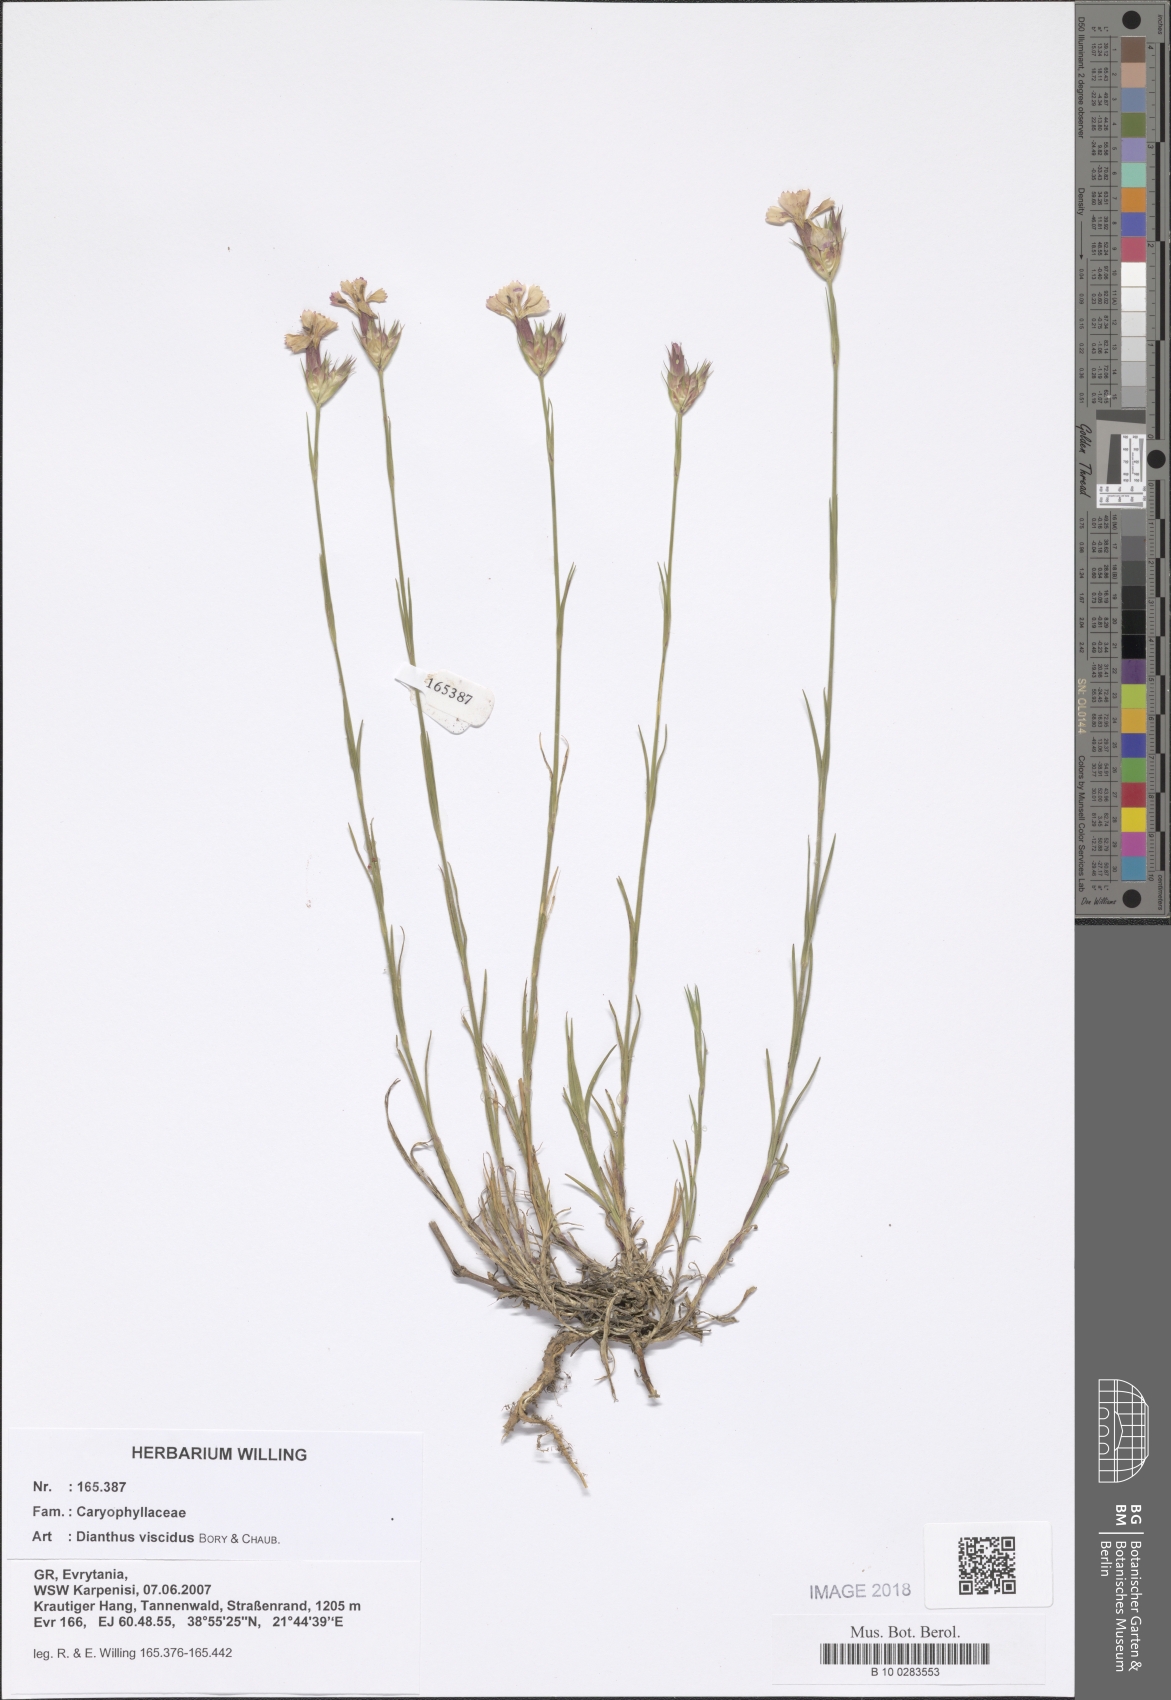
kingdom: Plantae
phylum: Tracheophyta
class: Magnoliopsida
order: Caryophyllales
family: Caryophyllaceae
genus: Dianthus
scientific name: Dianthus viscidus
